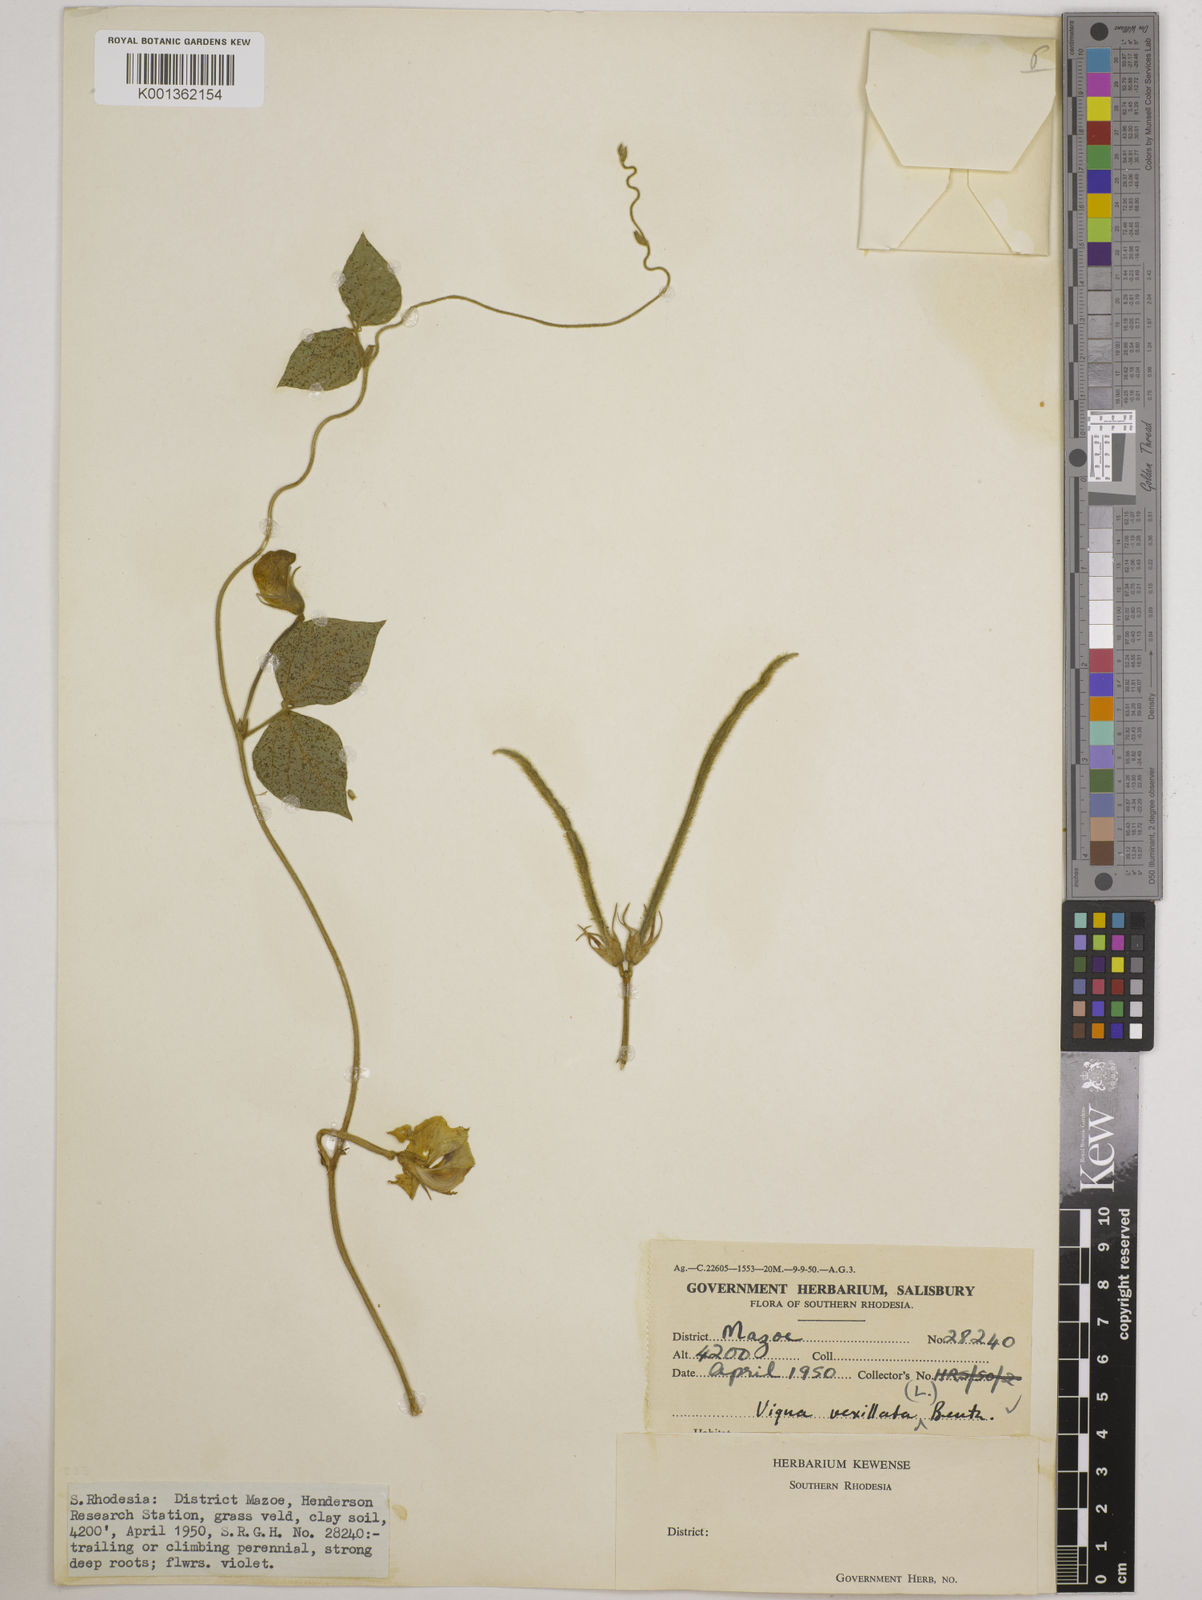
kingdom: Plantae
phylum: Tracheophyta
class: Magnoliopsida
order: Fabales
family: Fabaceae
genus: Vigna
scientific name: Vigna vexillata
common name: Zombi pea
